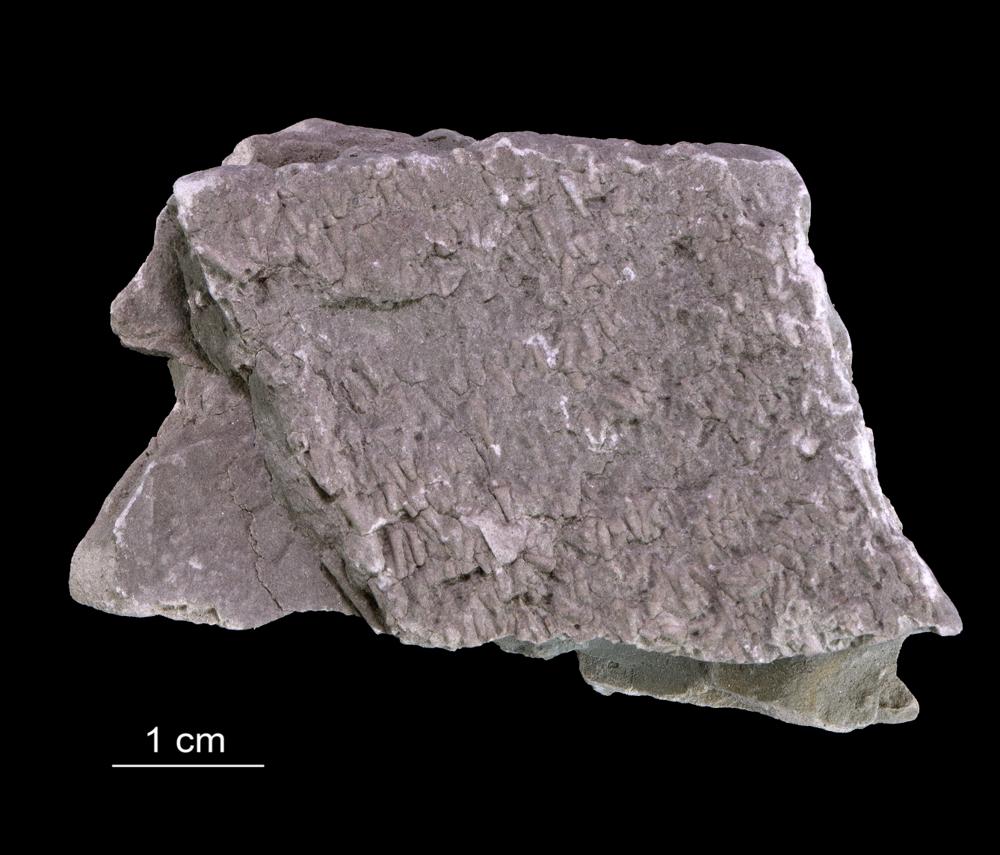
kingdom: Animalia
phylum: Annelida
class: Polychaeta
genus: Volborthella
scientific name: Volborthella tenuis
